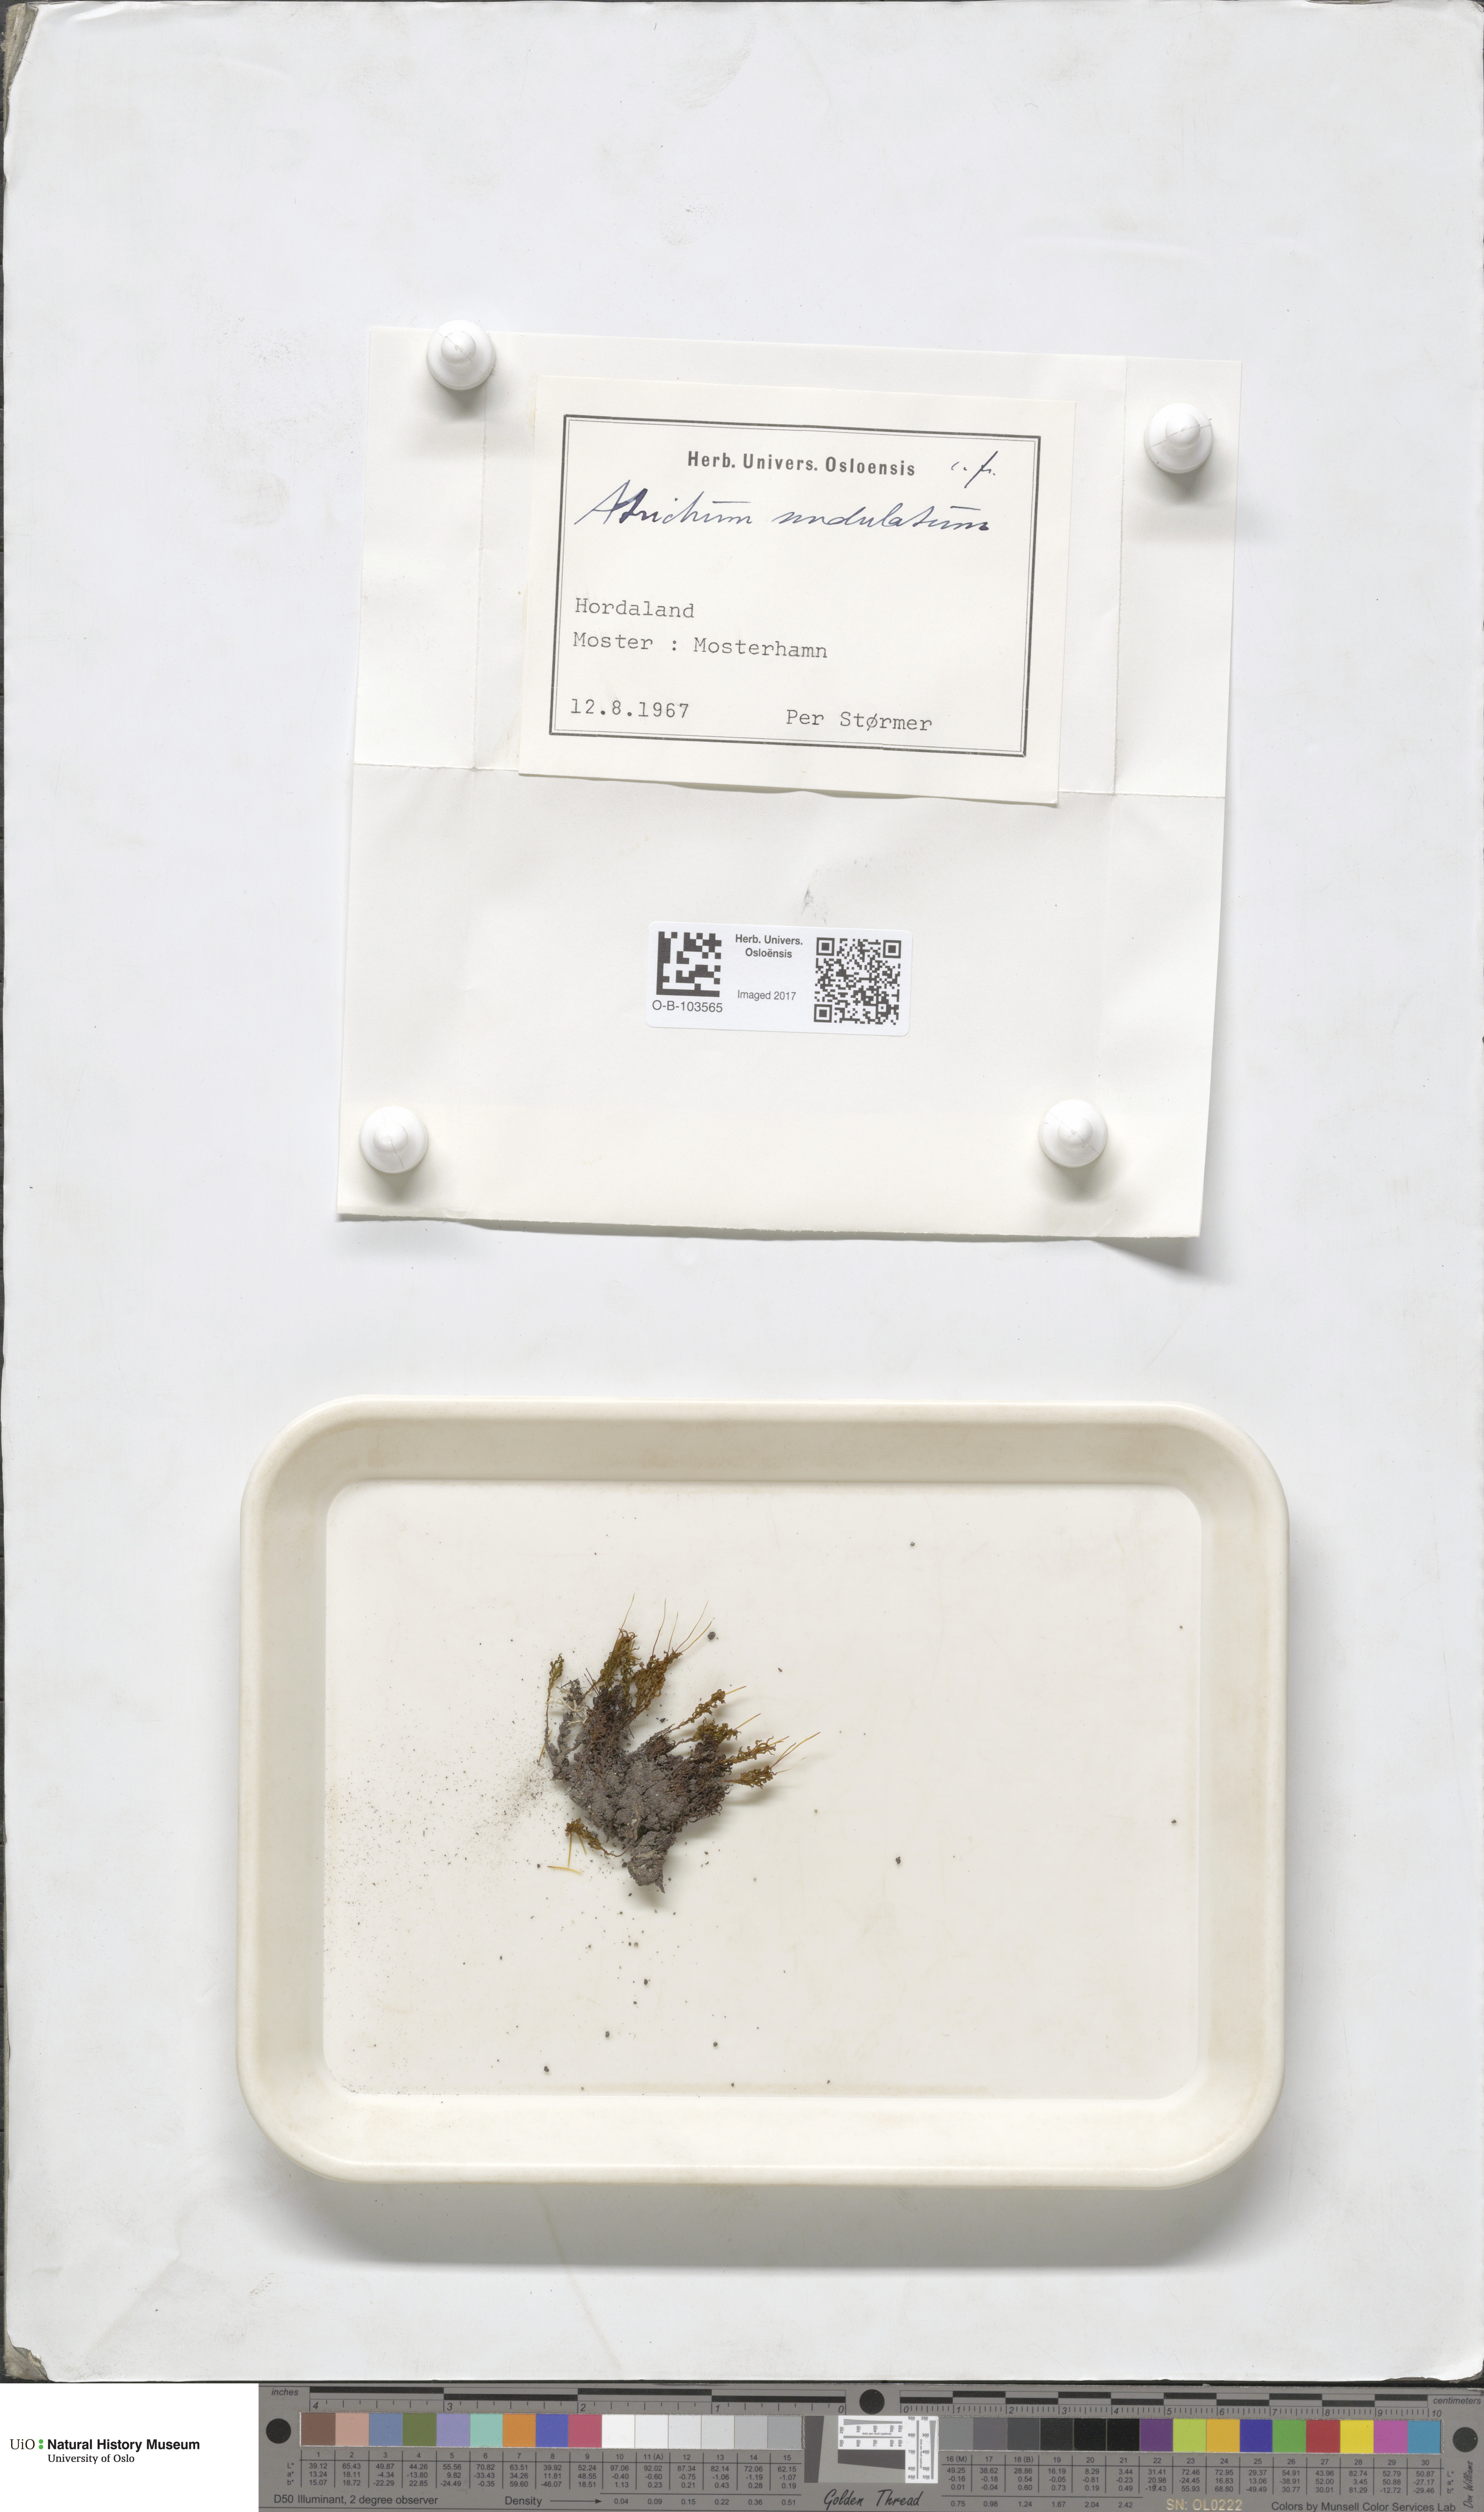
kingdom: Plantae
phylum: Bryophyta
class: Polytrichopsida
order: Polytrichales
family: Polytrichaceae
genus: Atrichum
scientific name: Atrichum undulatum
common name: Common smoothcap
